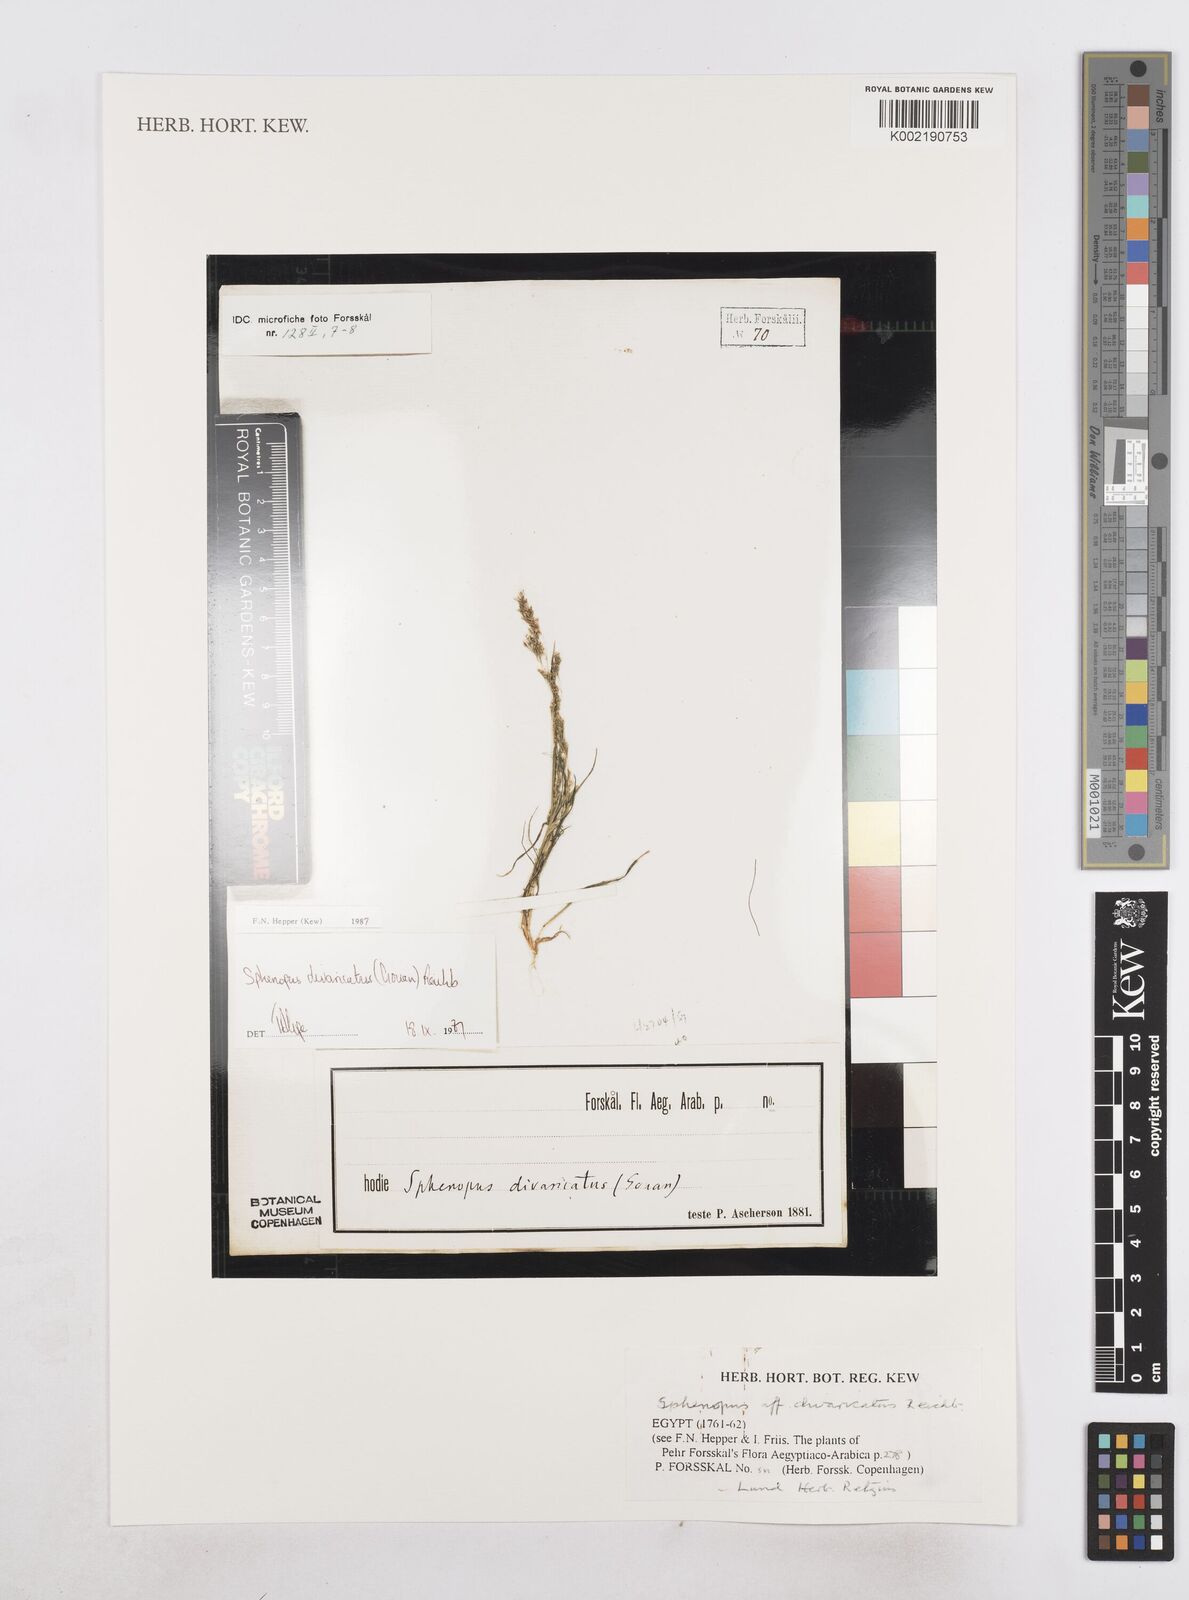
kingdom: Plantae
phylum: Tracheophyta
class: Liliopsida
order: Poales
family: Poaceae
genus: Sphenopus
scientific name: Sphenopus divaricatus
